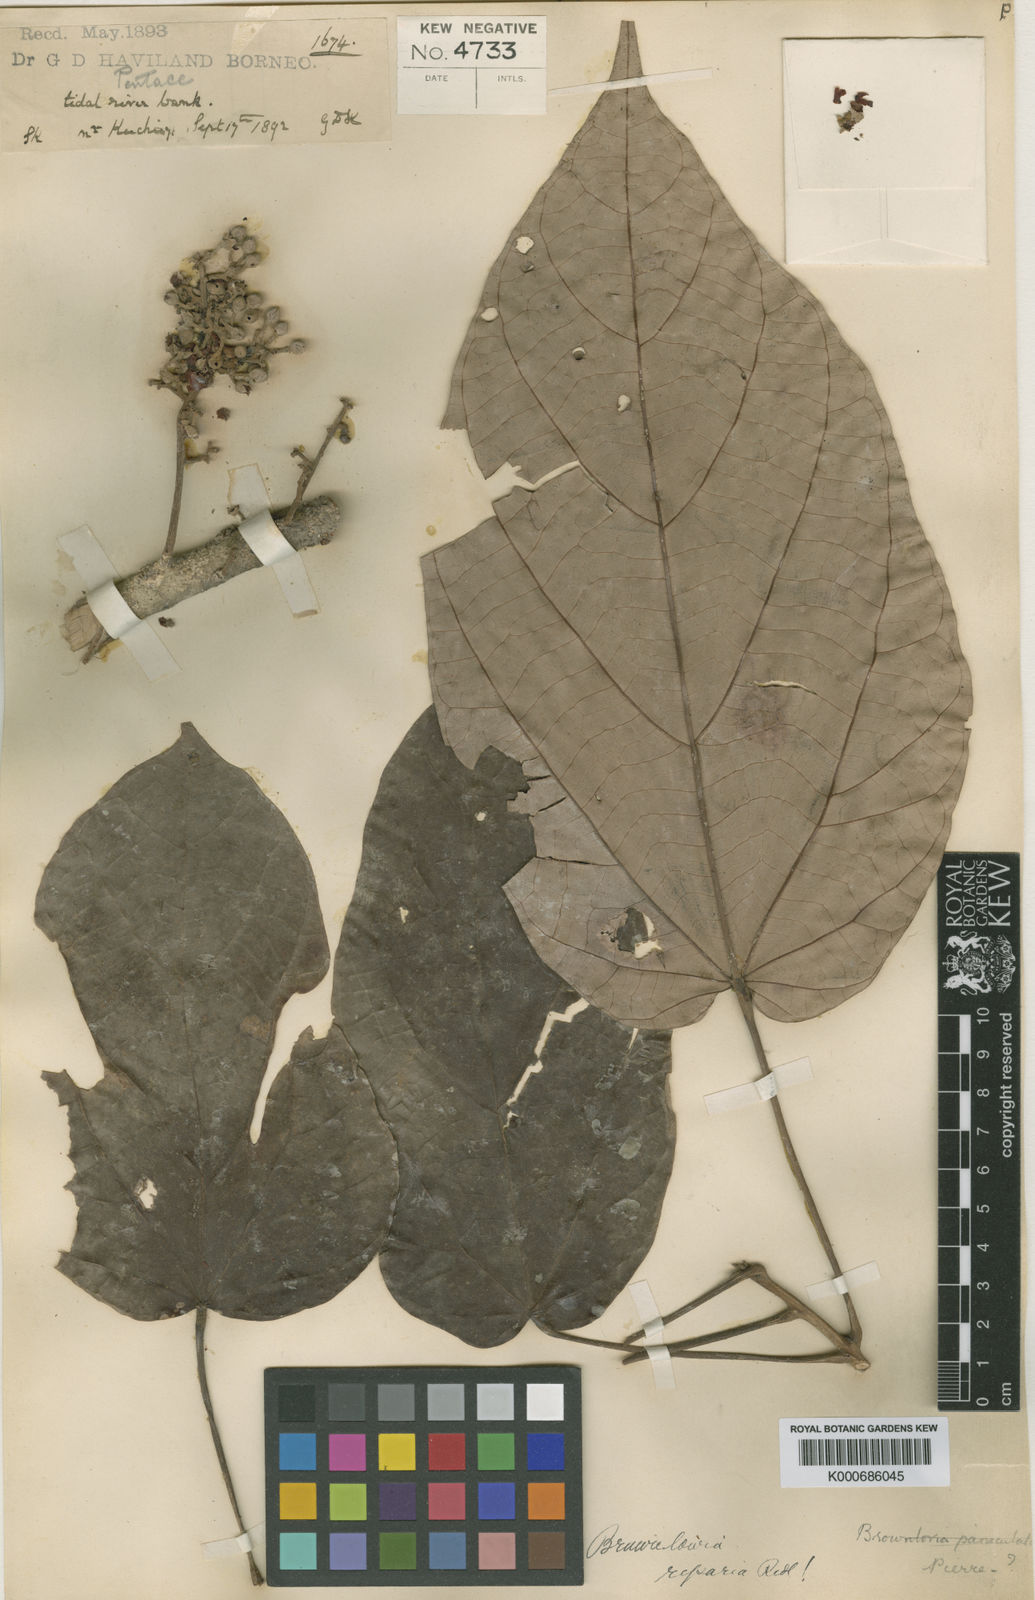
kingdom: Plantae
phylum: Tracheophyta
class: Magnoliopsida
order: Malvales
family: Malvaceae
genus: Brownlowia
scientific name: Brownlowia riparia
